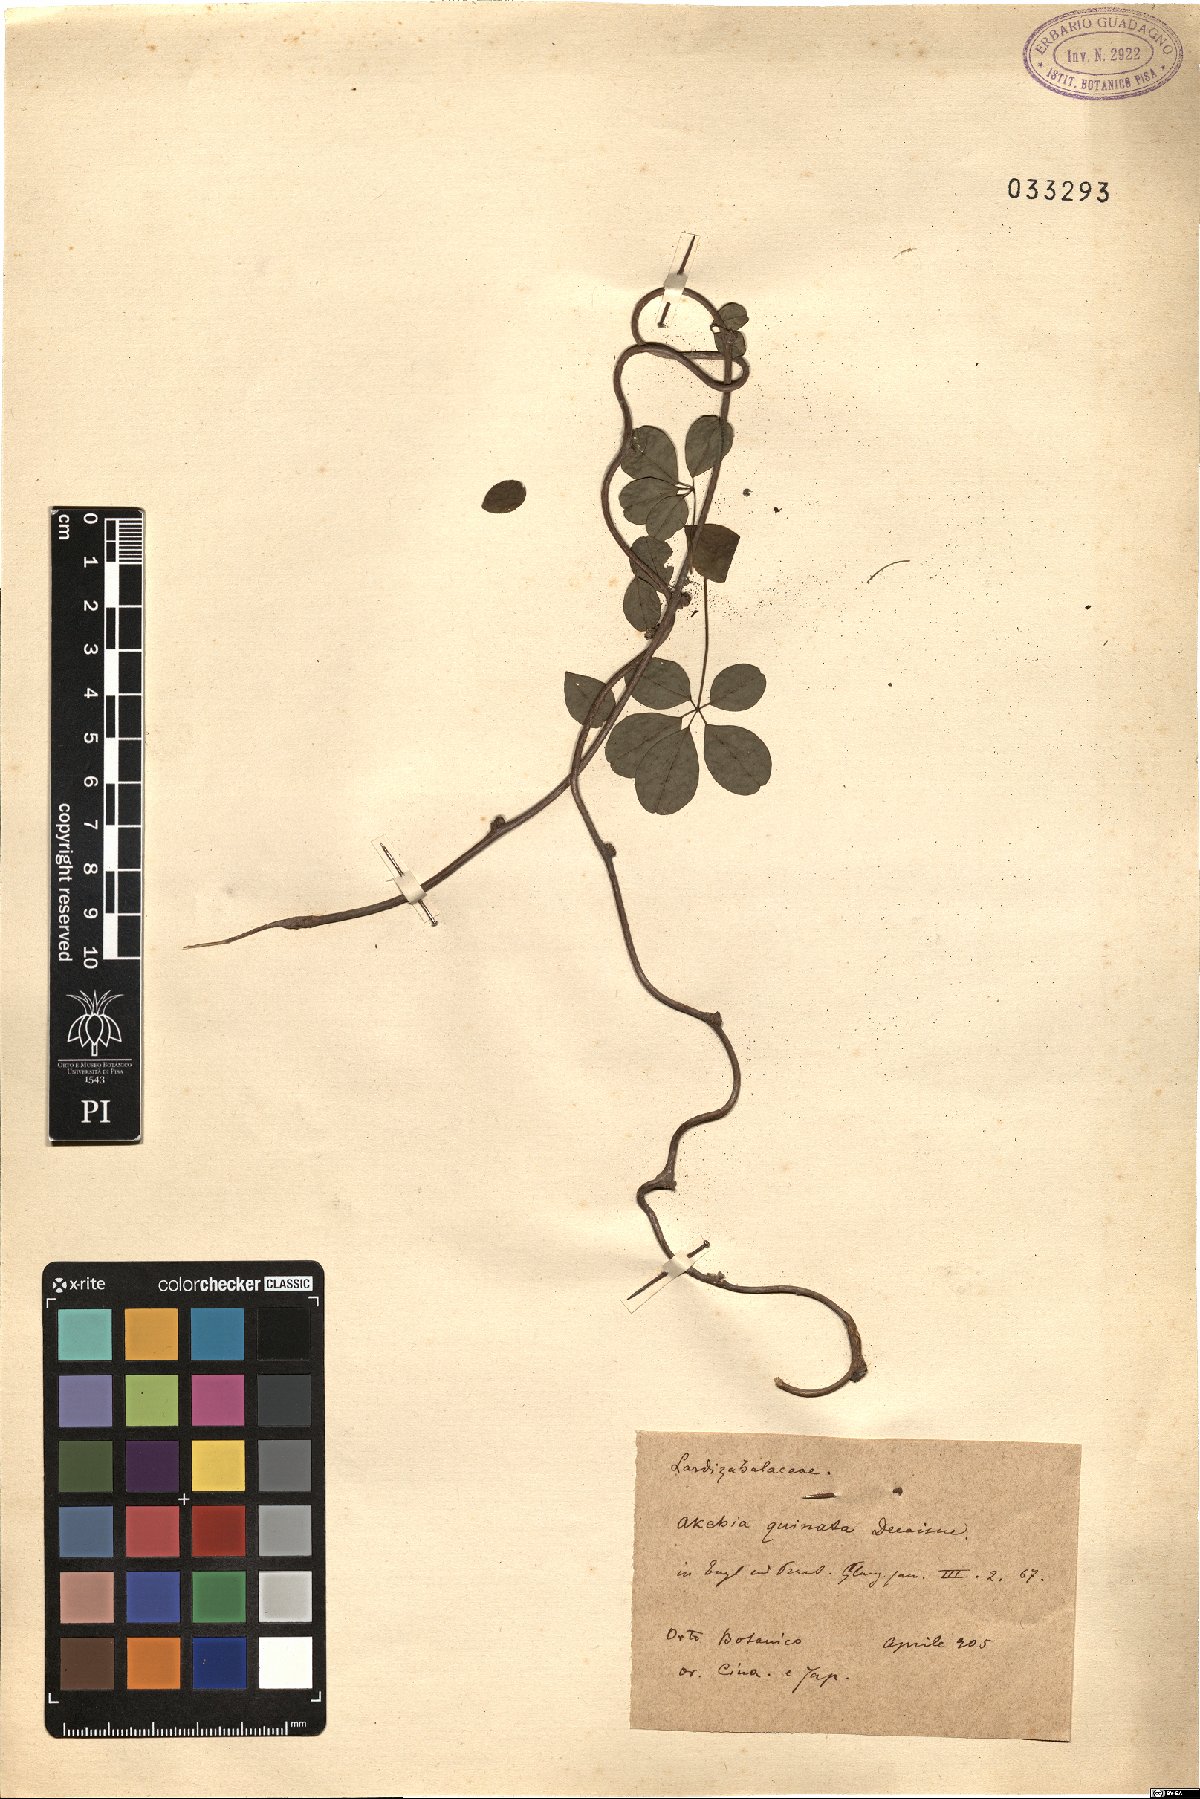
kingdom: Plantae
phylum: Tracheophyta
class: Magnoliopsida
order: Ranunculales
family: Lardizabalaceae
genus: Akebia
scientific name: Akebia quinata
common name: Five-leaf akebia
